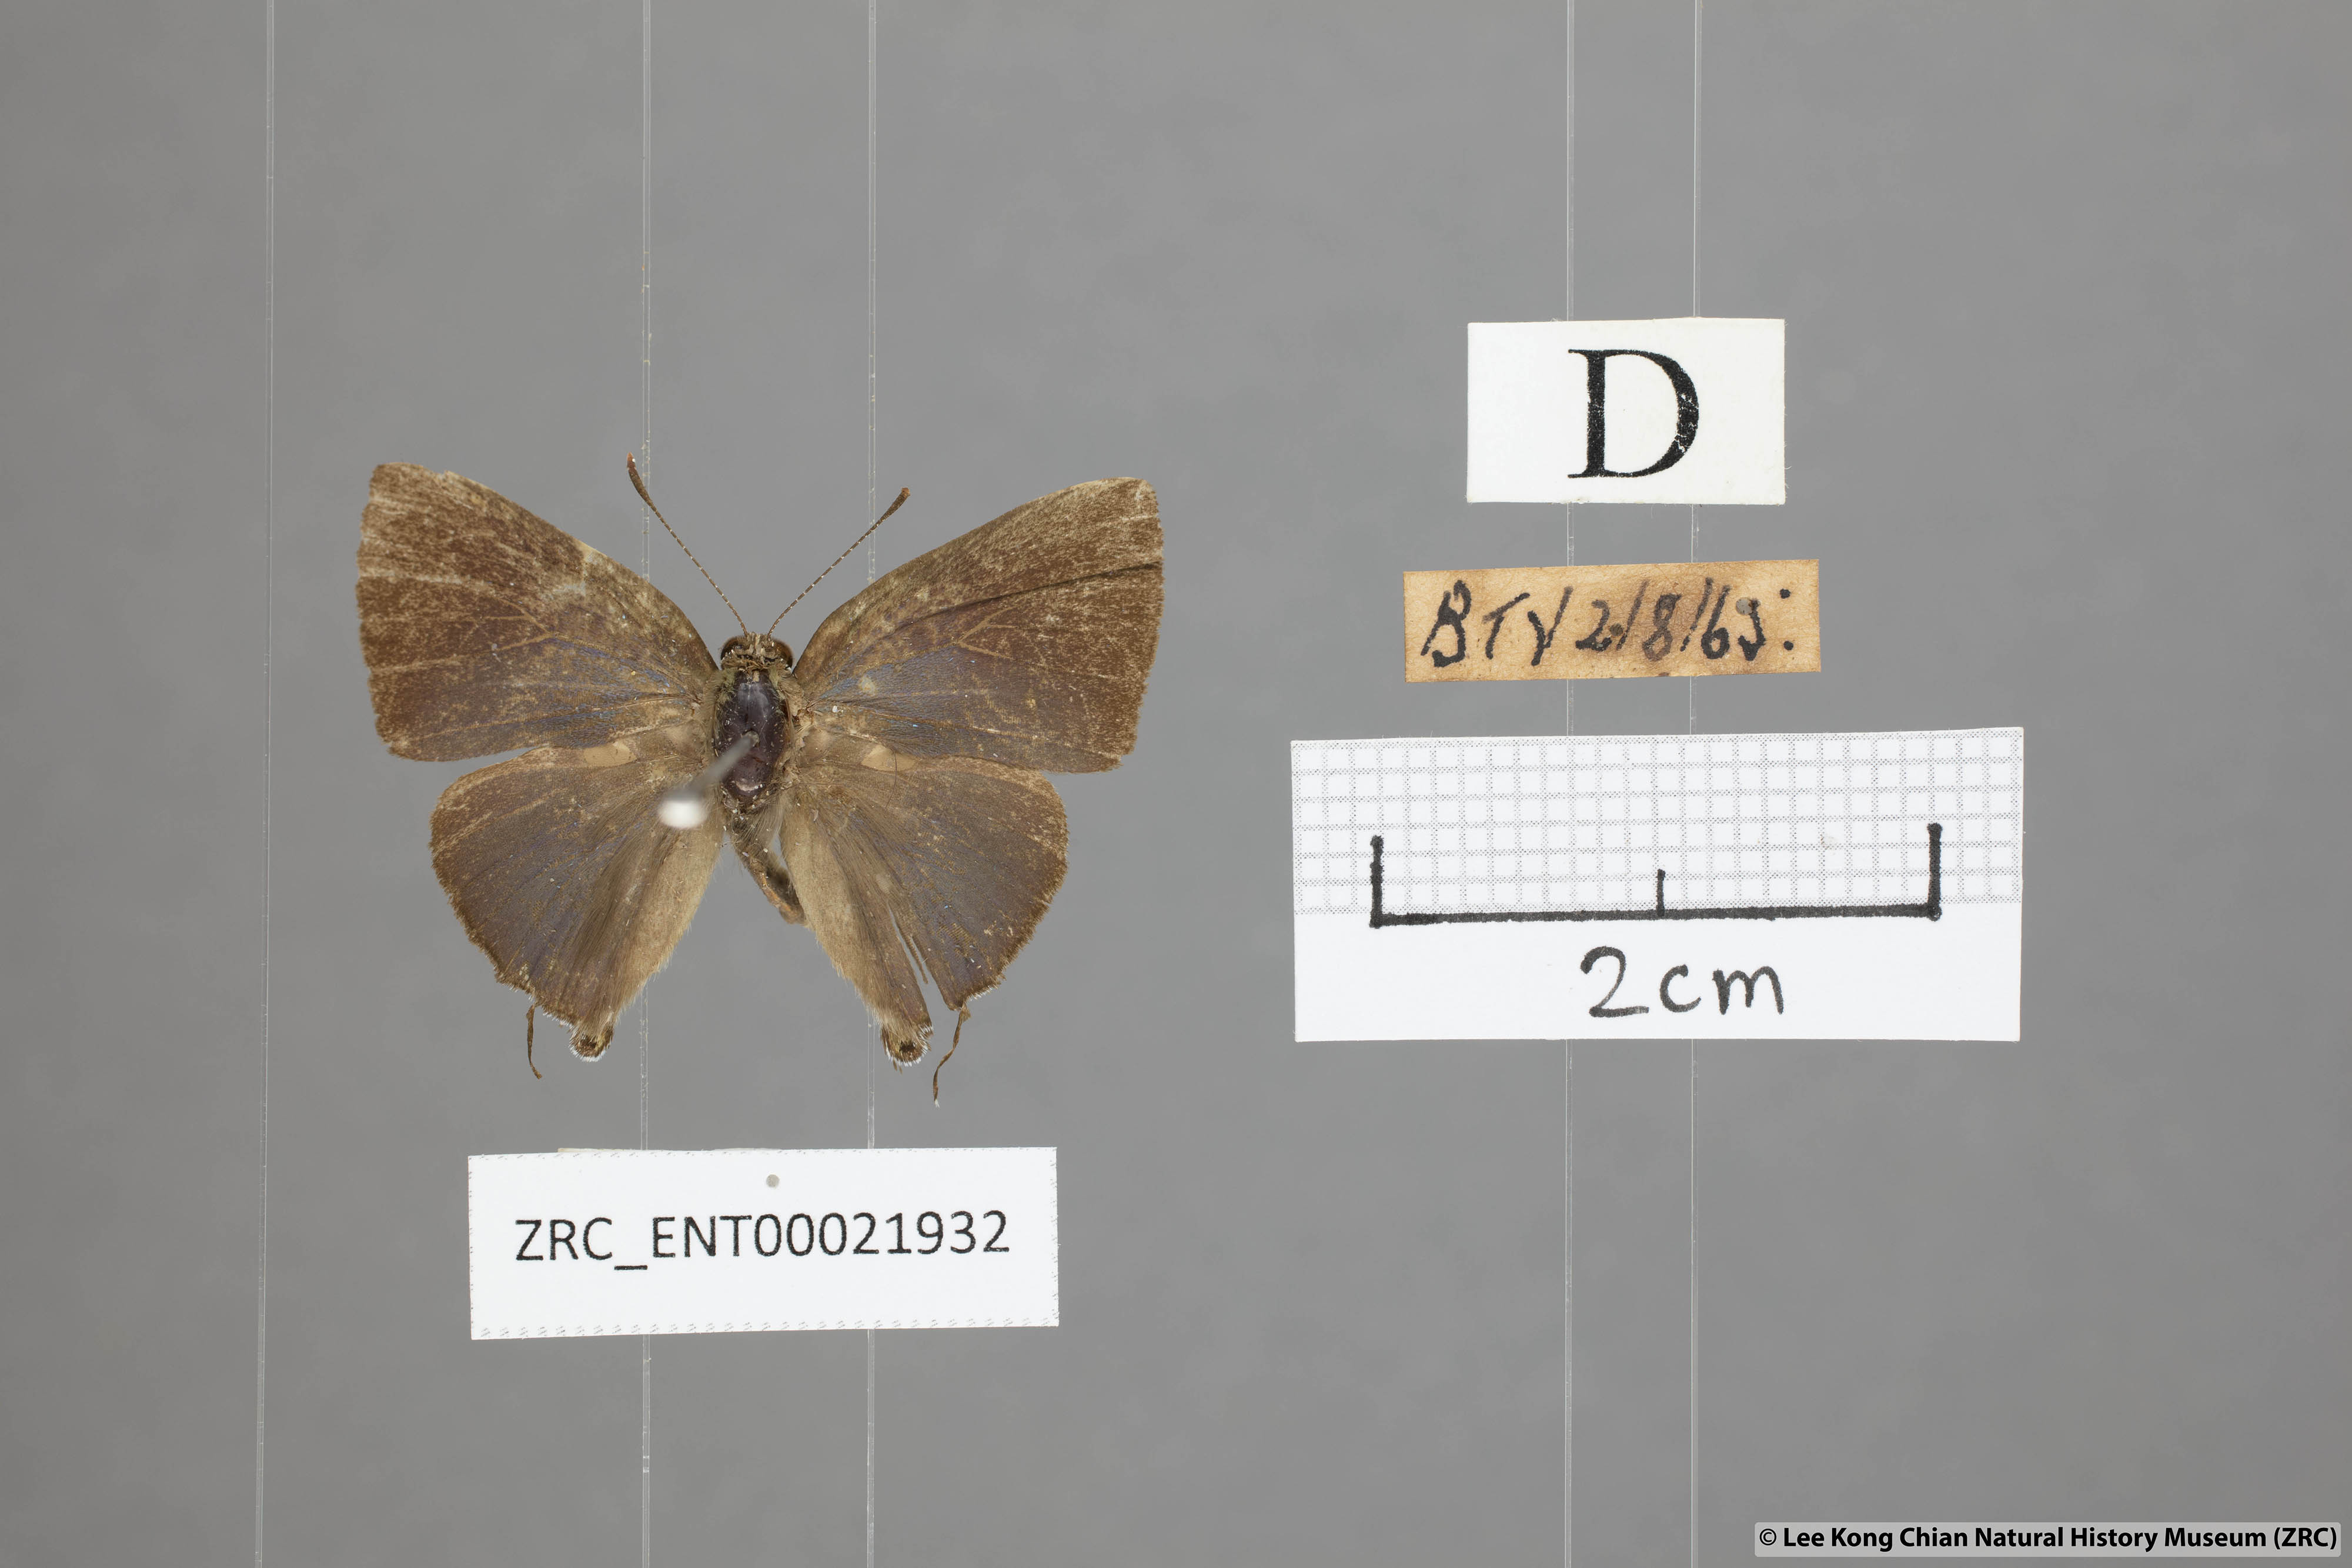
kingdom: Animalia
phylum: Arthropoda
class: Insecta
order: Lepidoptera
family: Lycaenidae
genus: Rapala
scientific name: Rapala varuna
